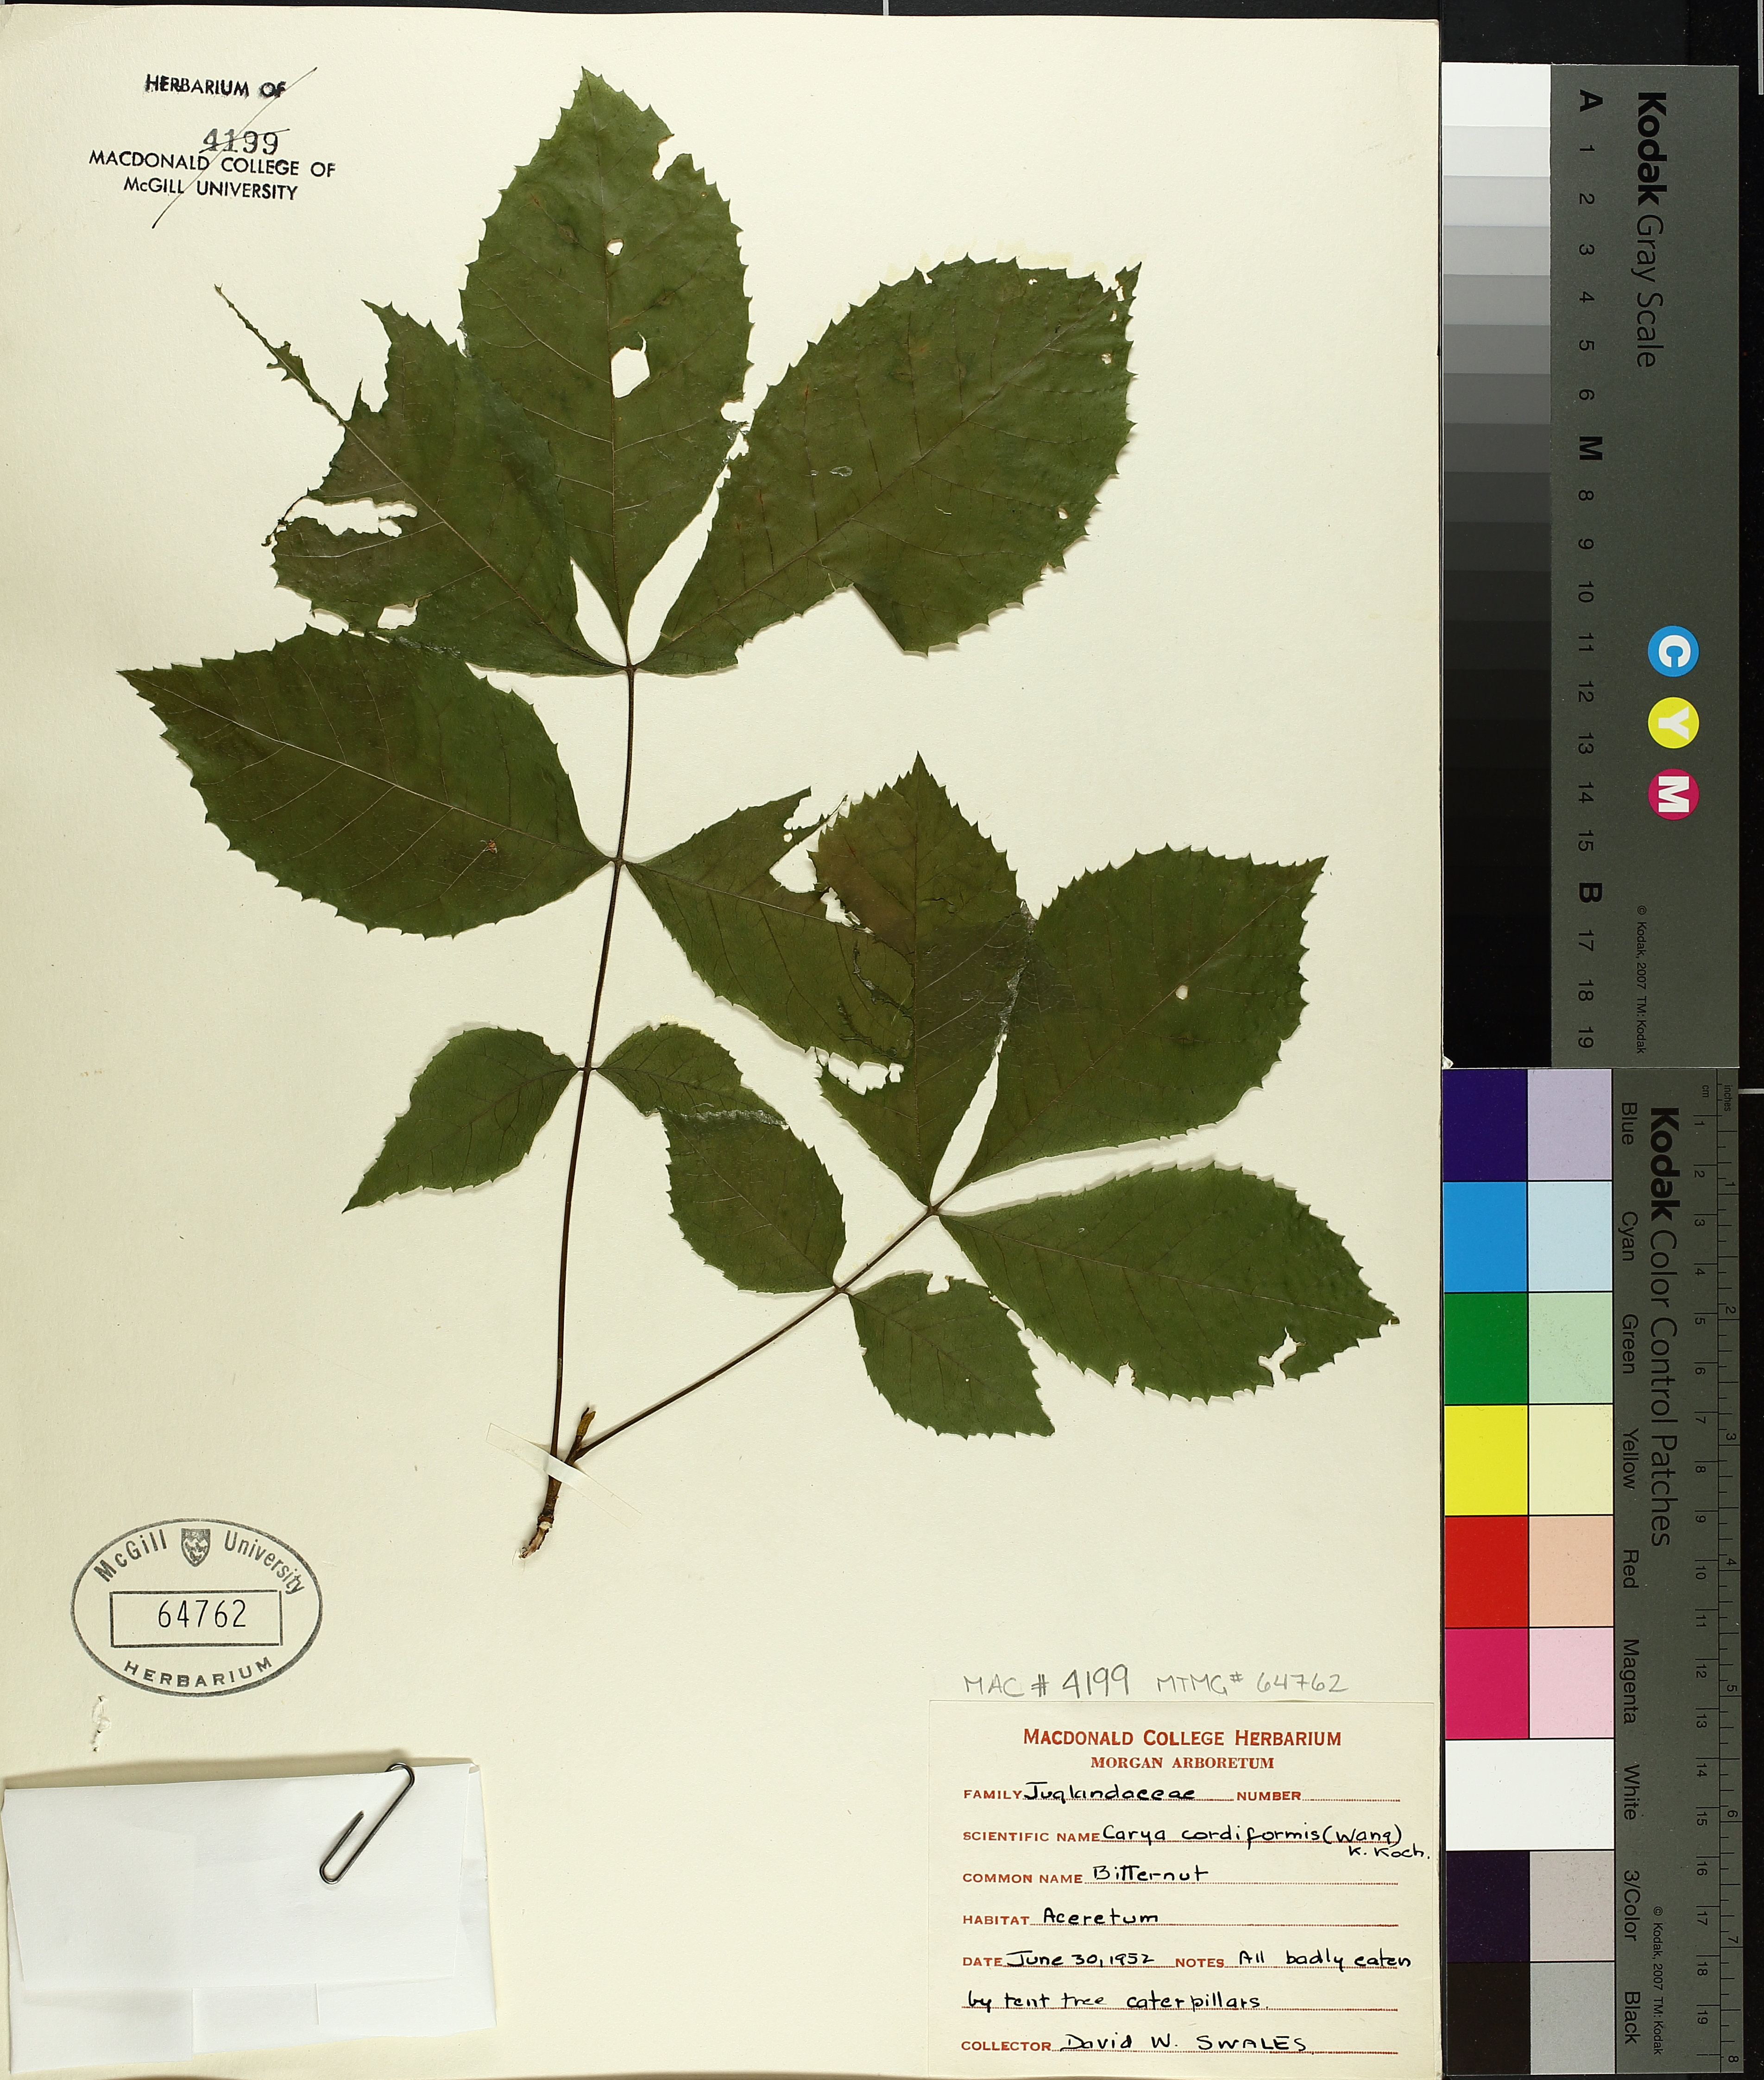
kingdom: Plantae
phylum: Tracheophyta
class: Magnoliopsida
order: Fagales
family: Juglandaceae
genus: Carya
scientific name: Carya cordiformis
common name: Bitternut hickory
